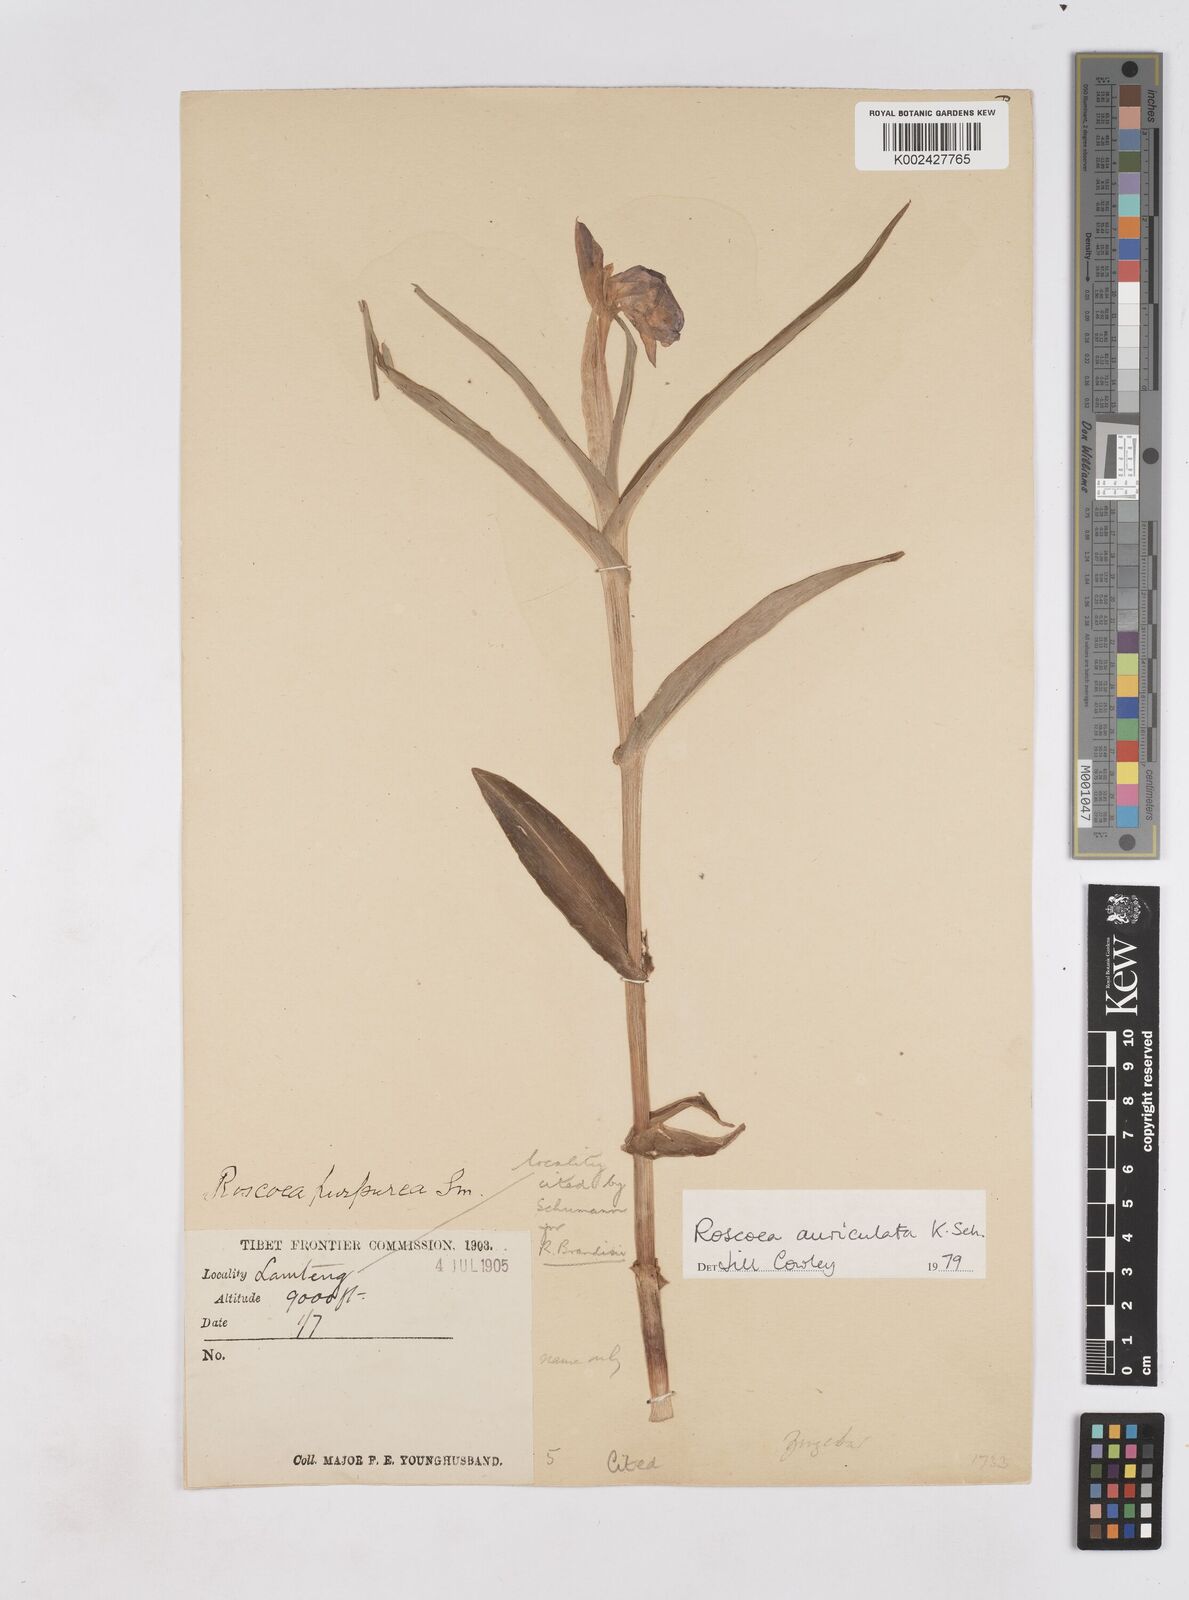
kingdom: Plantae
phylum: Tracheophyta
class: Liliopsida
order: Zingiberales
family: Zingiberaceae
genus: Roscoea
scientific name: Roscoea auriculata
